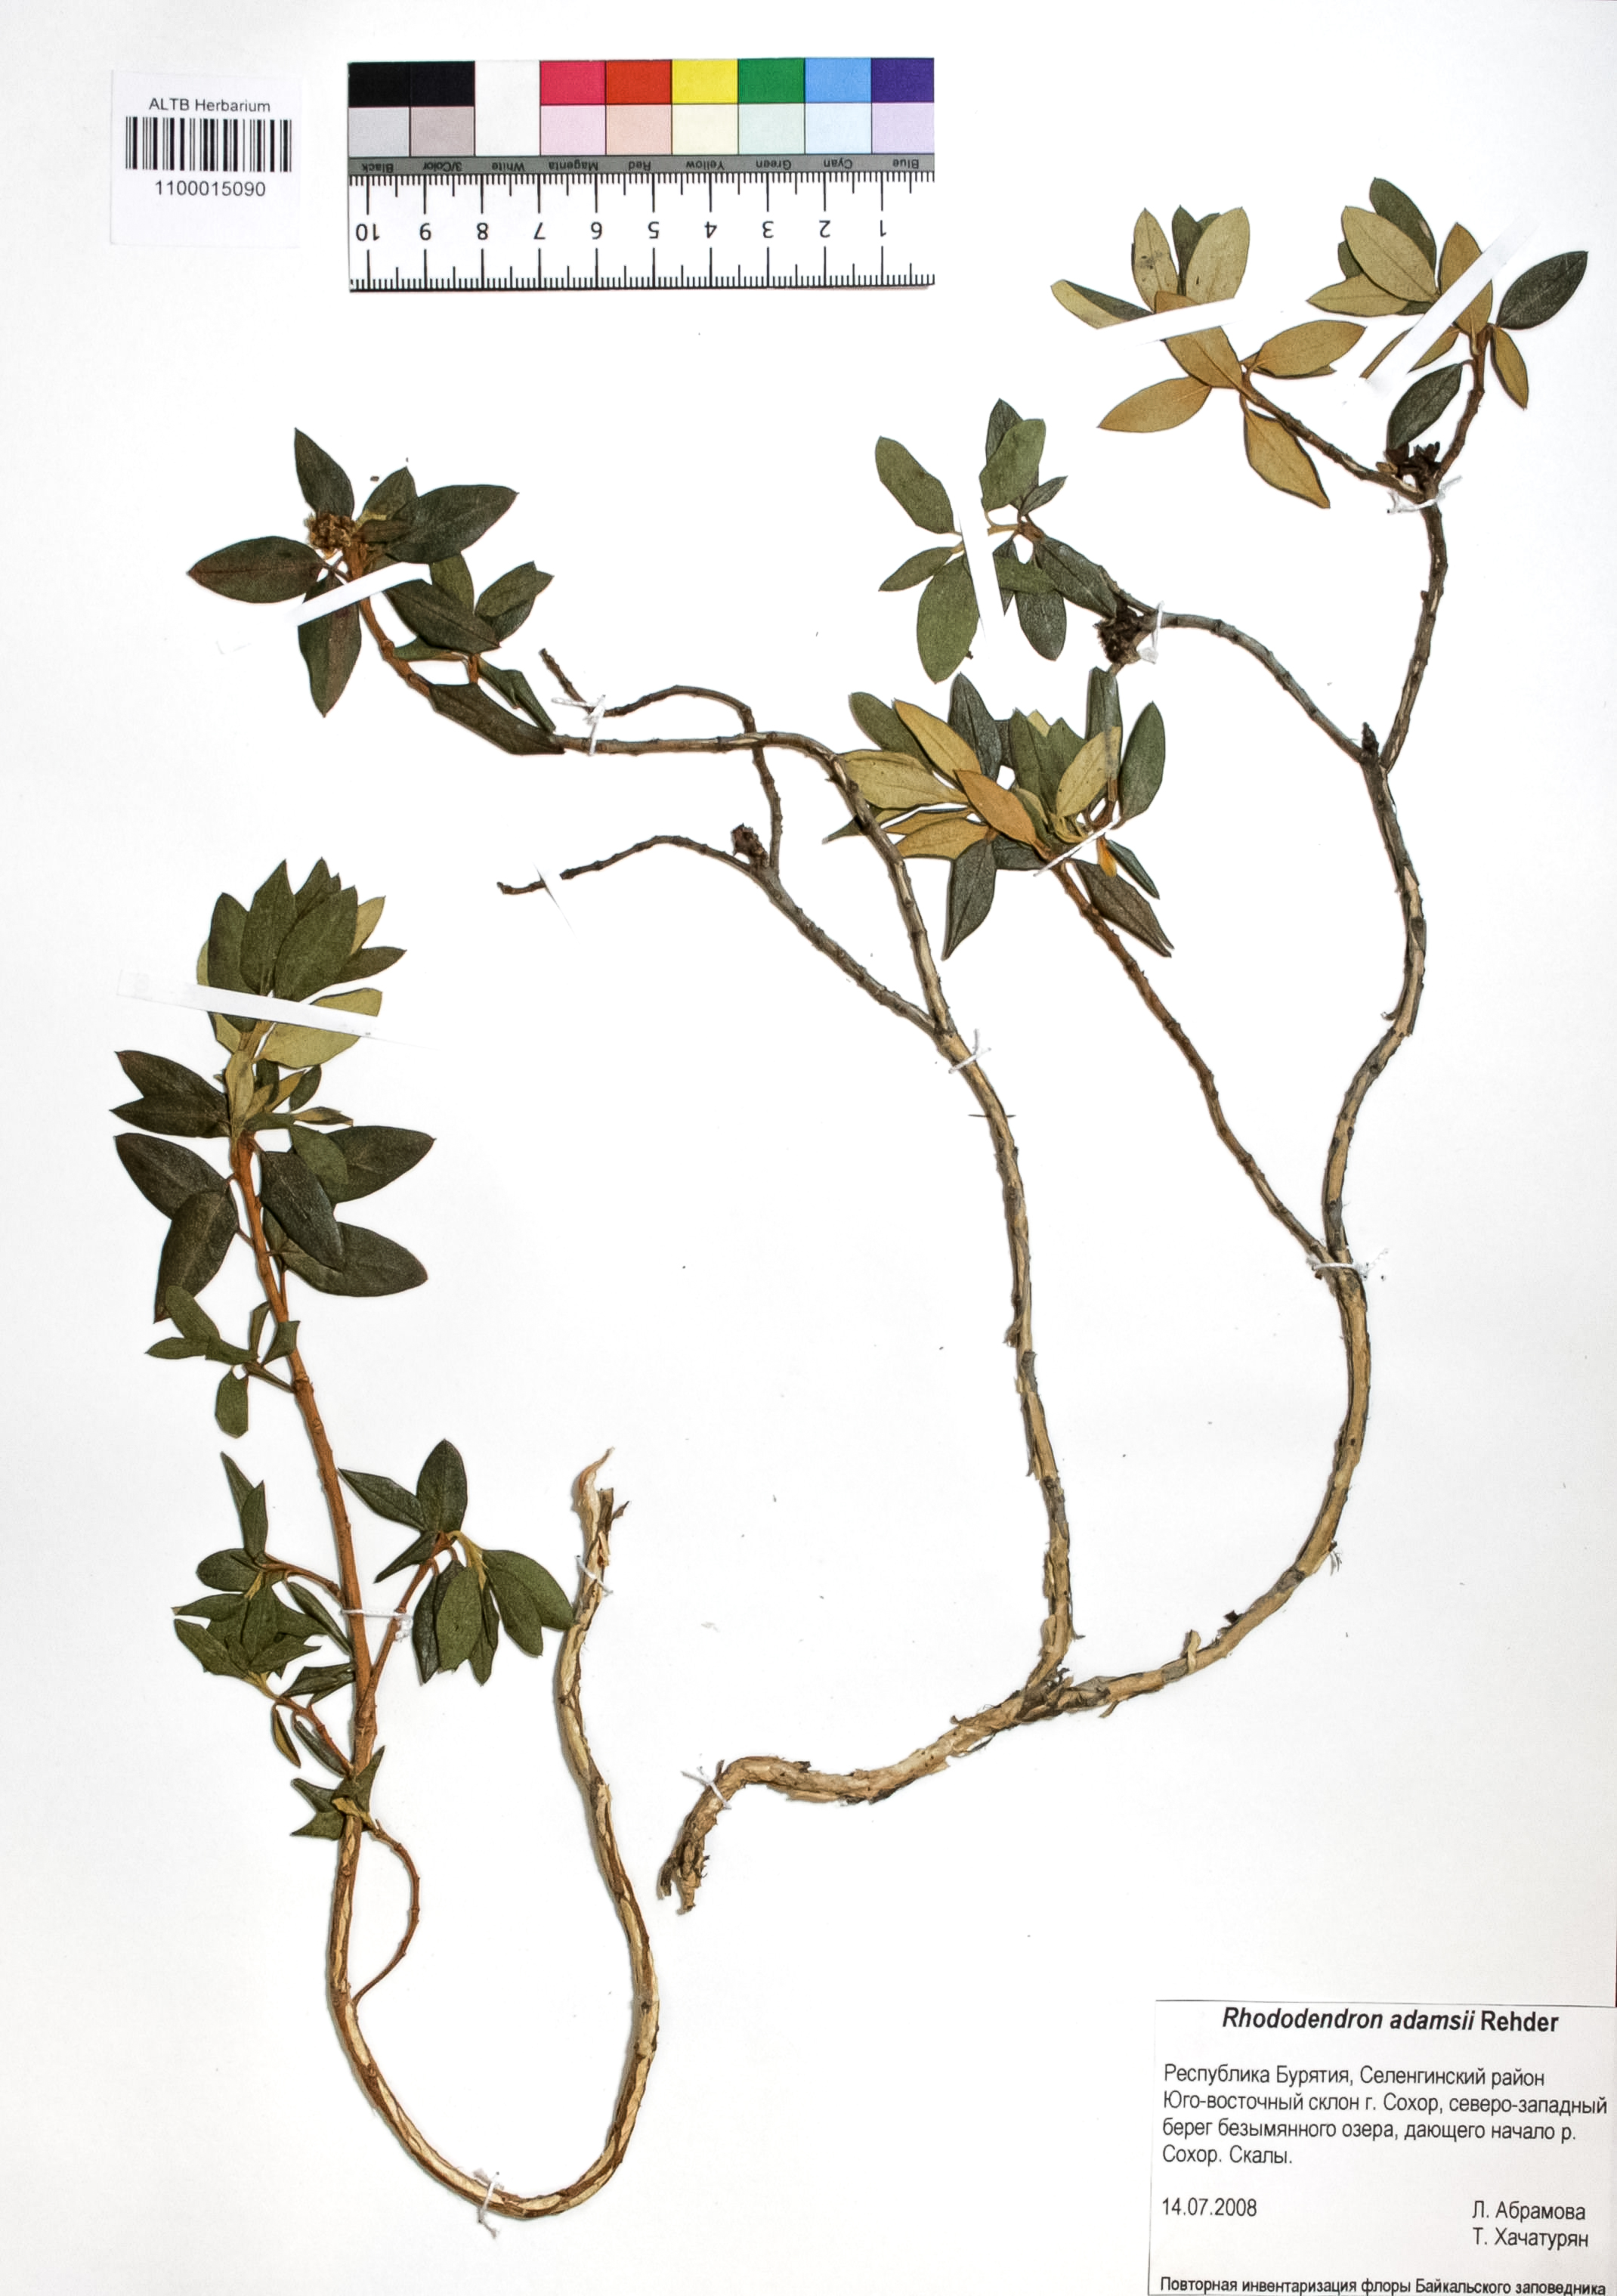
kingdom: Plantae
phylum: Tracheophyta
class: Magnoliopsida
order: Ericales
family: Ericaceae
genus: Rhododendron
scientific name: Rhododendron adamsii
